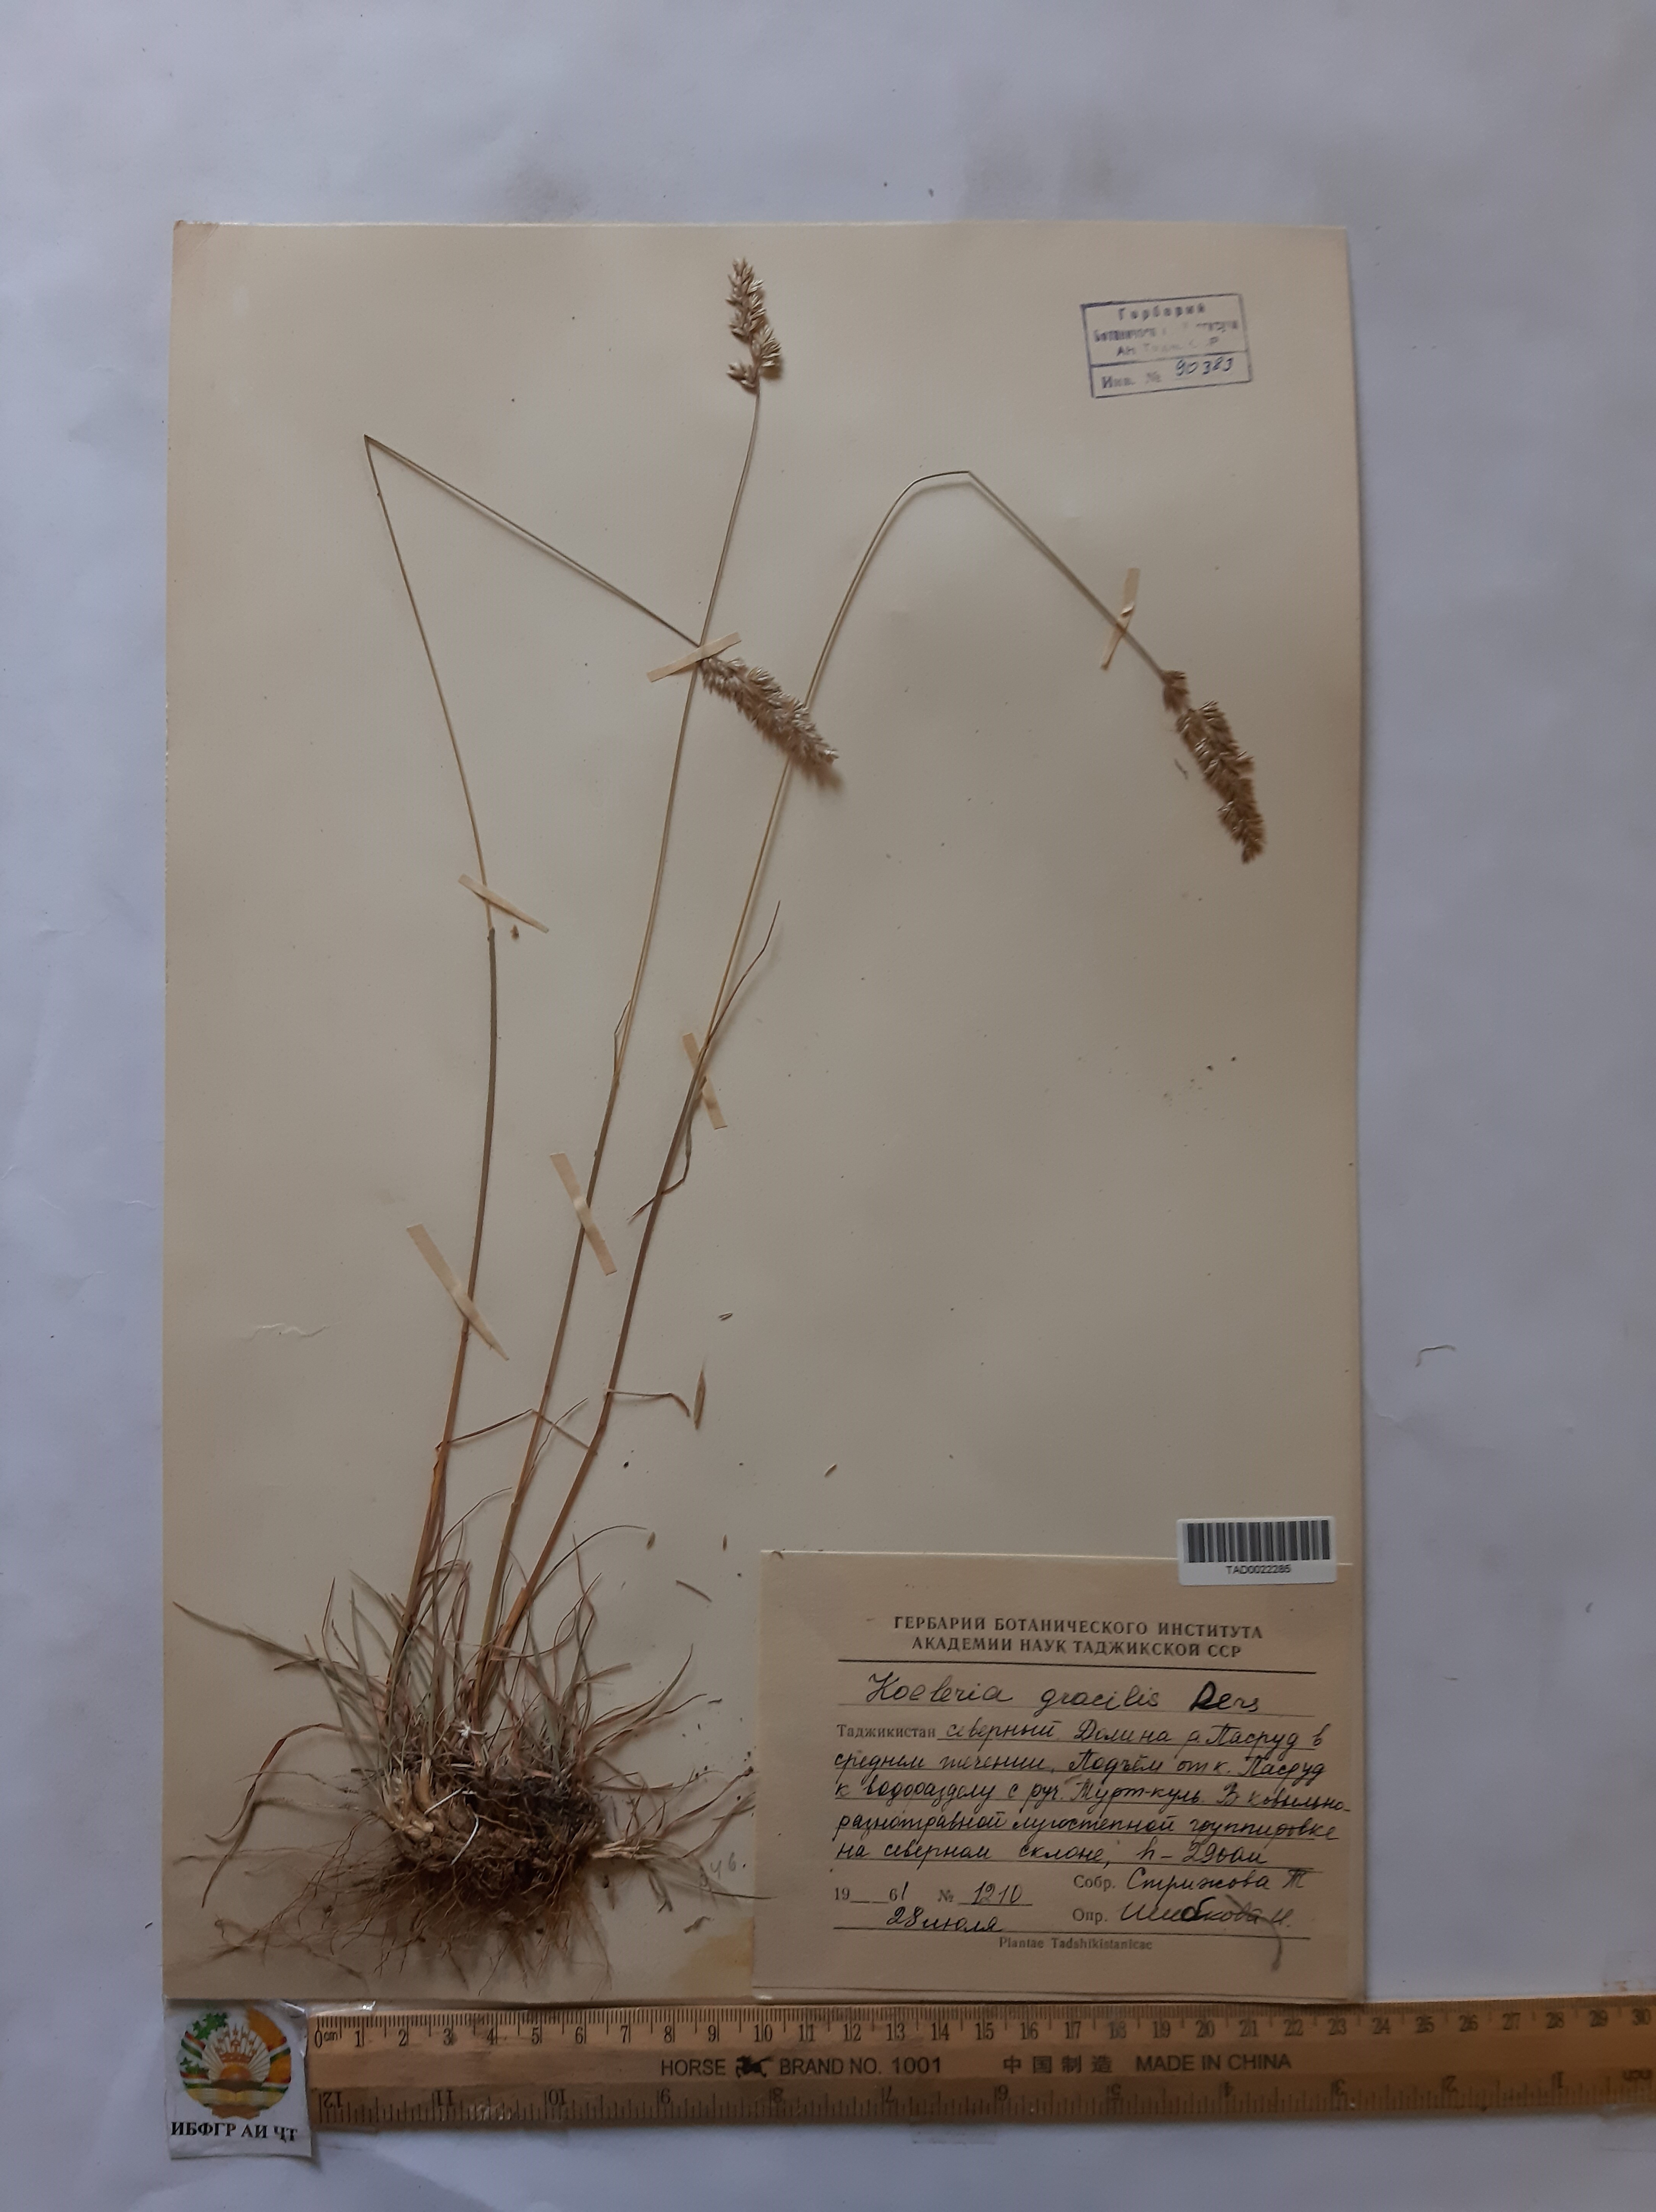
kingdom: Plantae
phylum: Tracheophyta
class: Liliopsida
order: Poales
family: Poaceae
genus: Koeleria
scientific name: Koeleria macrantha
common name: Crested hair-grass
